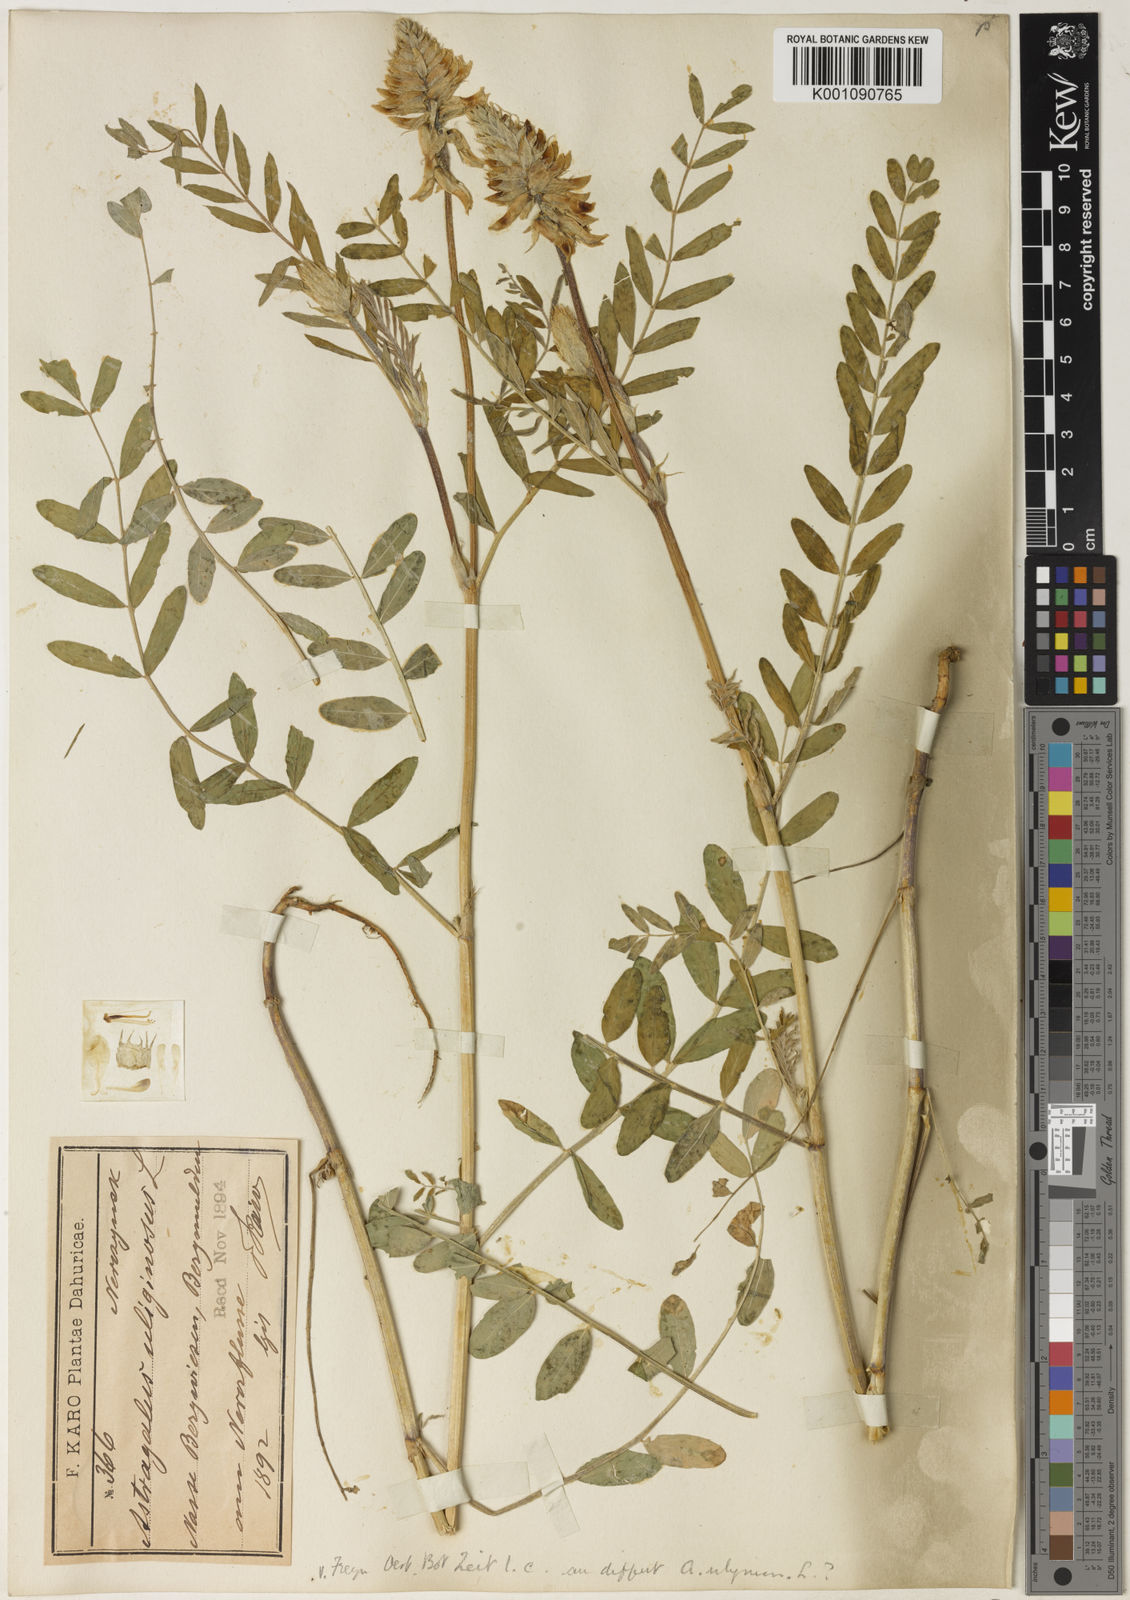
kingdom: Plantae
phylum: Tracheophyta
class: Magnoliopsida
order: Fabales
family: Fabaceae
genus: Astragalus
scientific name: Astragalus
